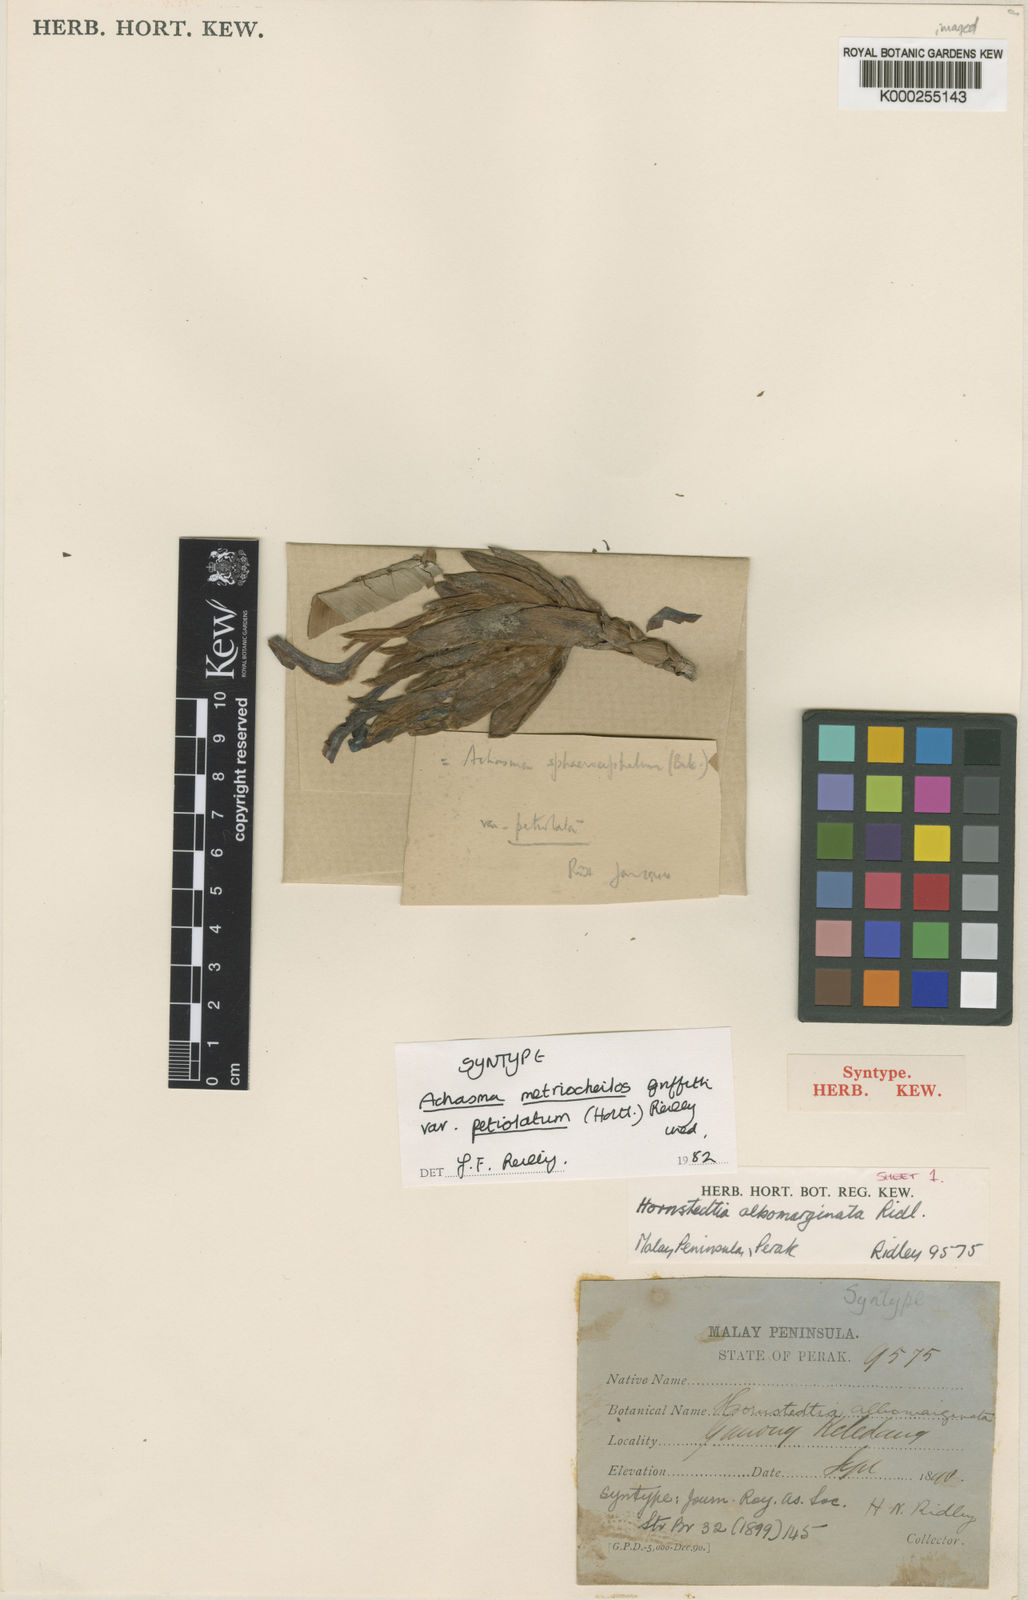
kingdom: Plantae
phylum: Tracheophyta
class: Liliopsida
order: Zingiberales
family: Zingiberaceae
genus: Etlingera
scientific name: Etlingera metriocheilos
